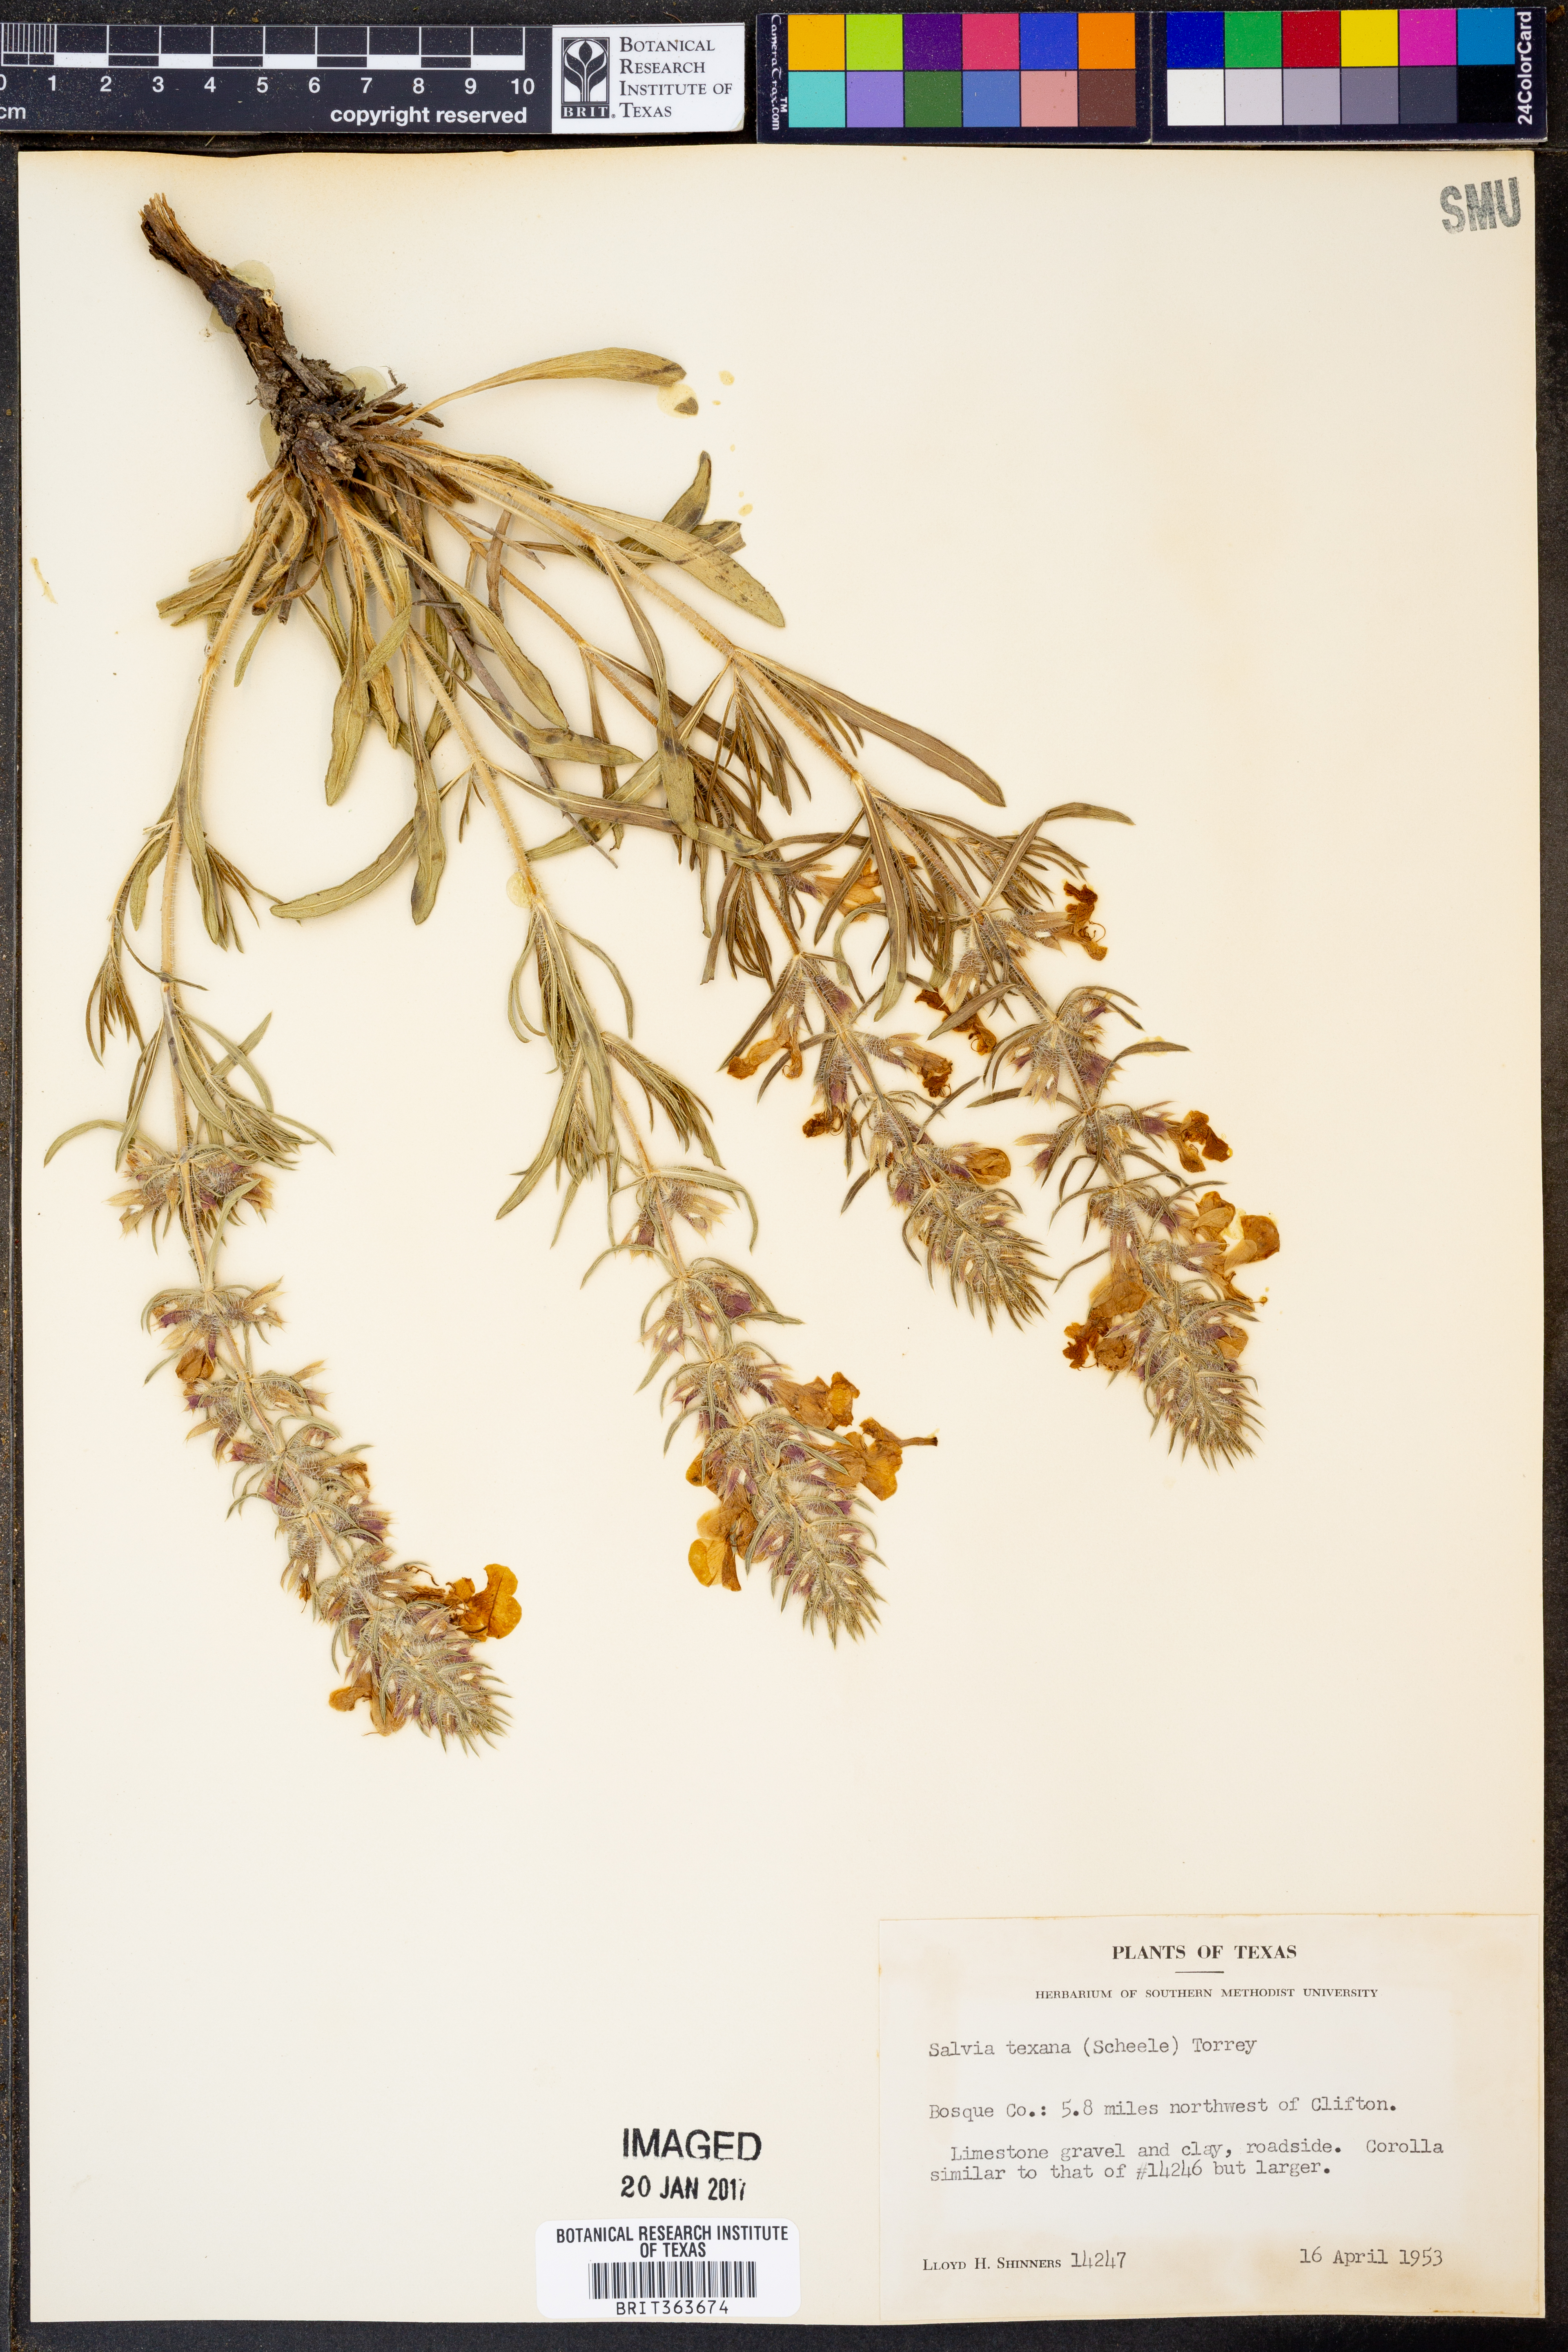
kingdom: Plantae
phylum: Tracheophyta
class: Magnoliopsida
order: Lamiales
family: Lamiaceae
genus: Salvia
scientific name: Salvia texana
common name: Texas sage
